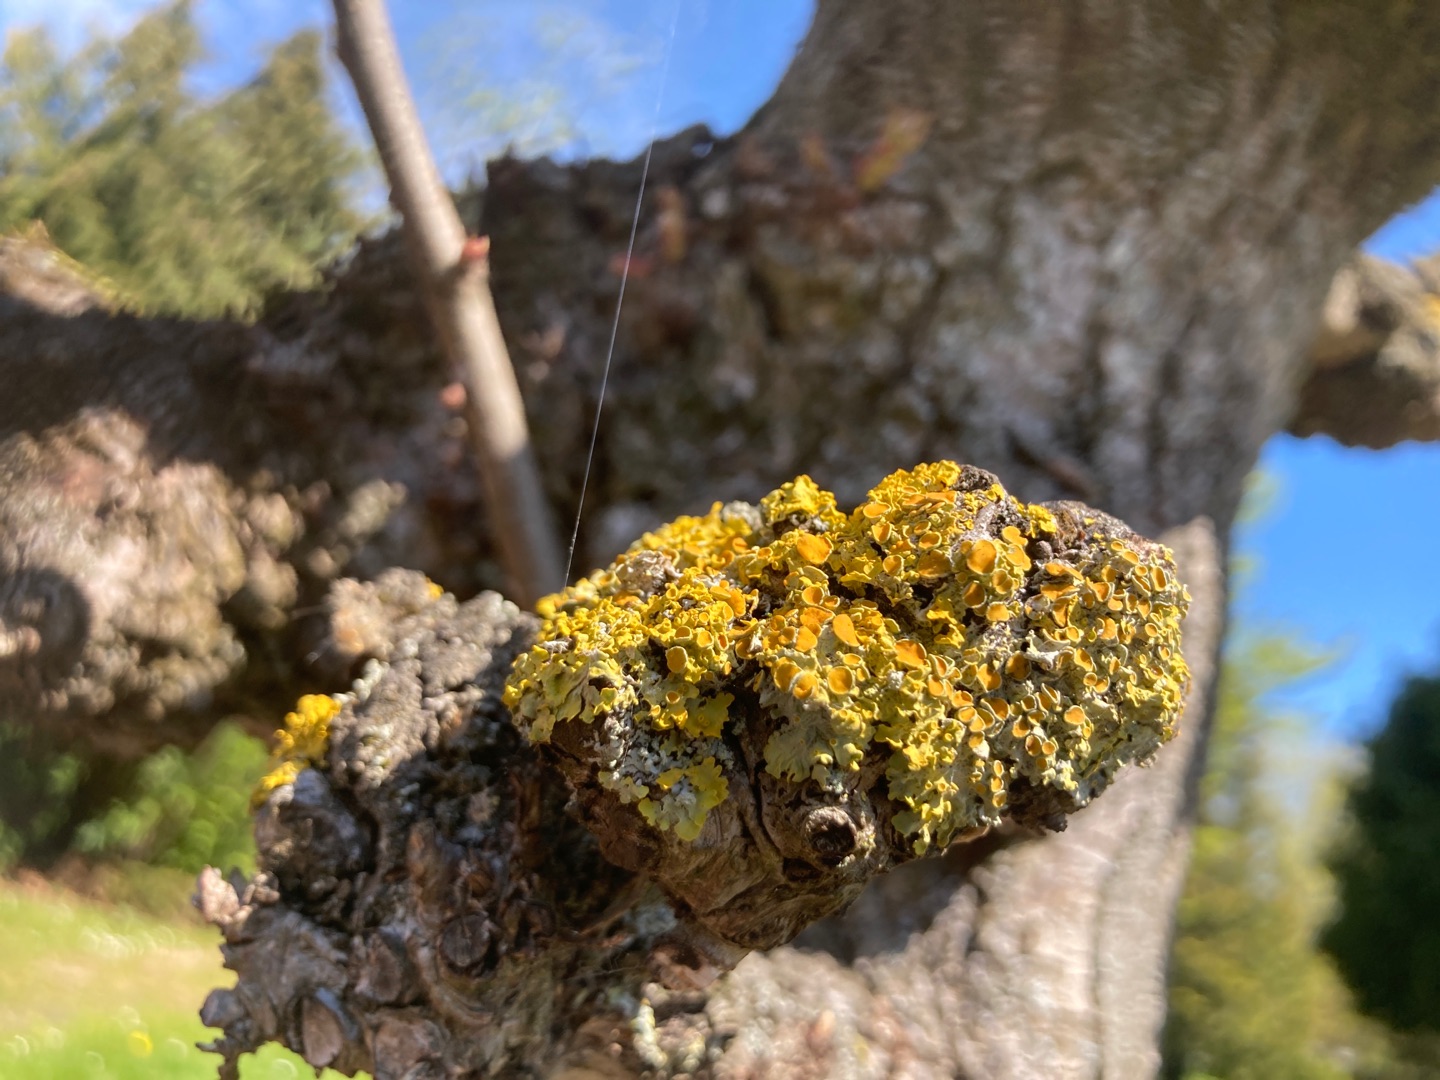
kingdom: Fungi
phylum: Ascomycota
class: Lecanoromycetes
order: Teloschistales
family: Teloschistaceae
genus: Xanthoria
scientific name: Xanthoria parietina
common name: Almindelig væggelav
